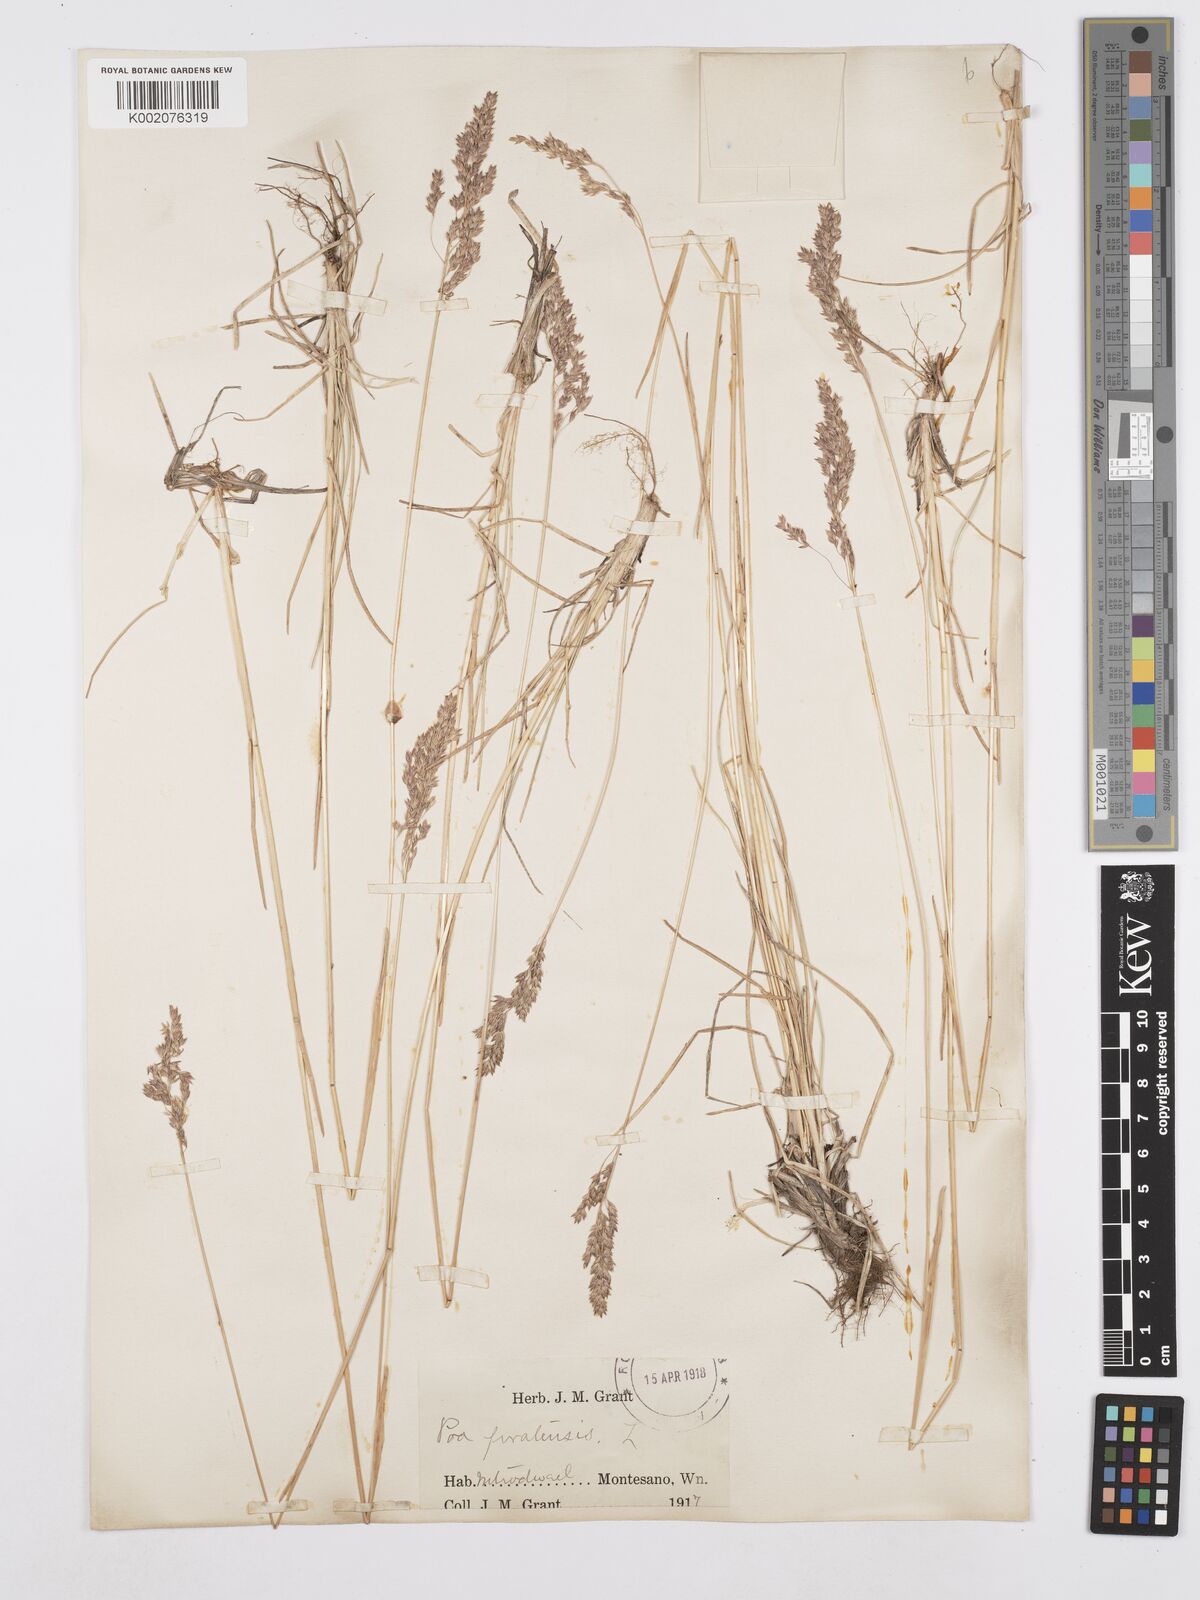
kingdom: Plantae
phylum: Tracheophyta
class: Liliopsida
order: Poales
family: Poaceae
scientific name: Poaceae
